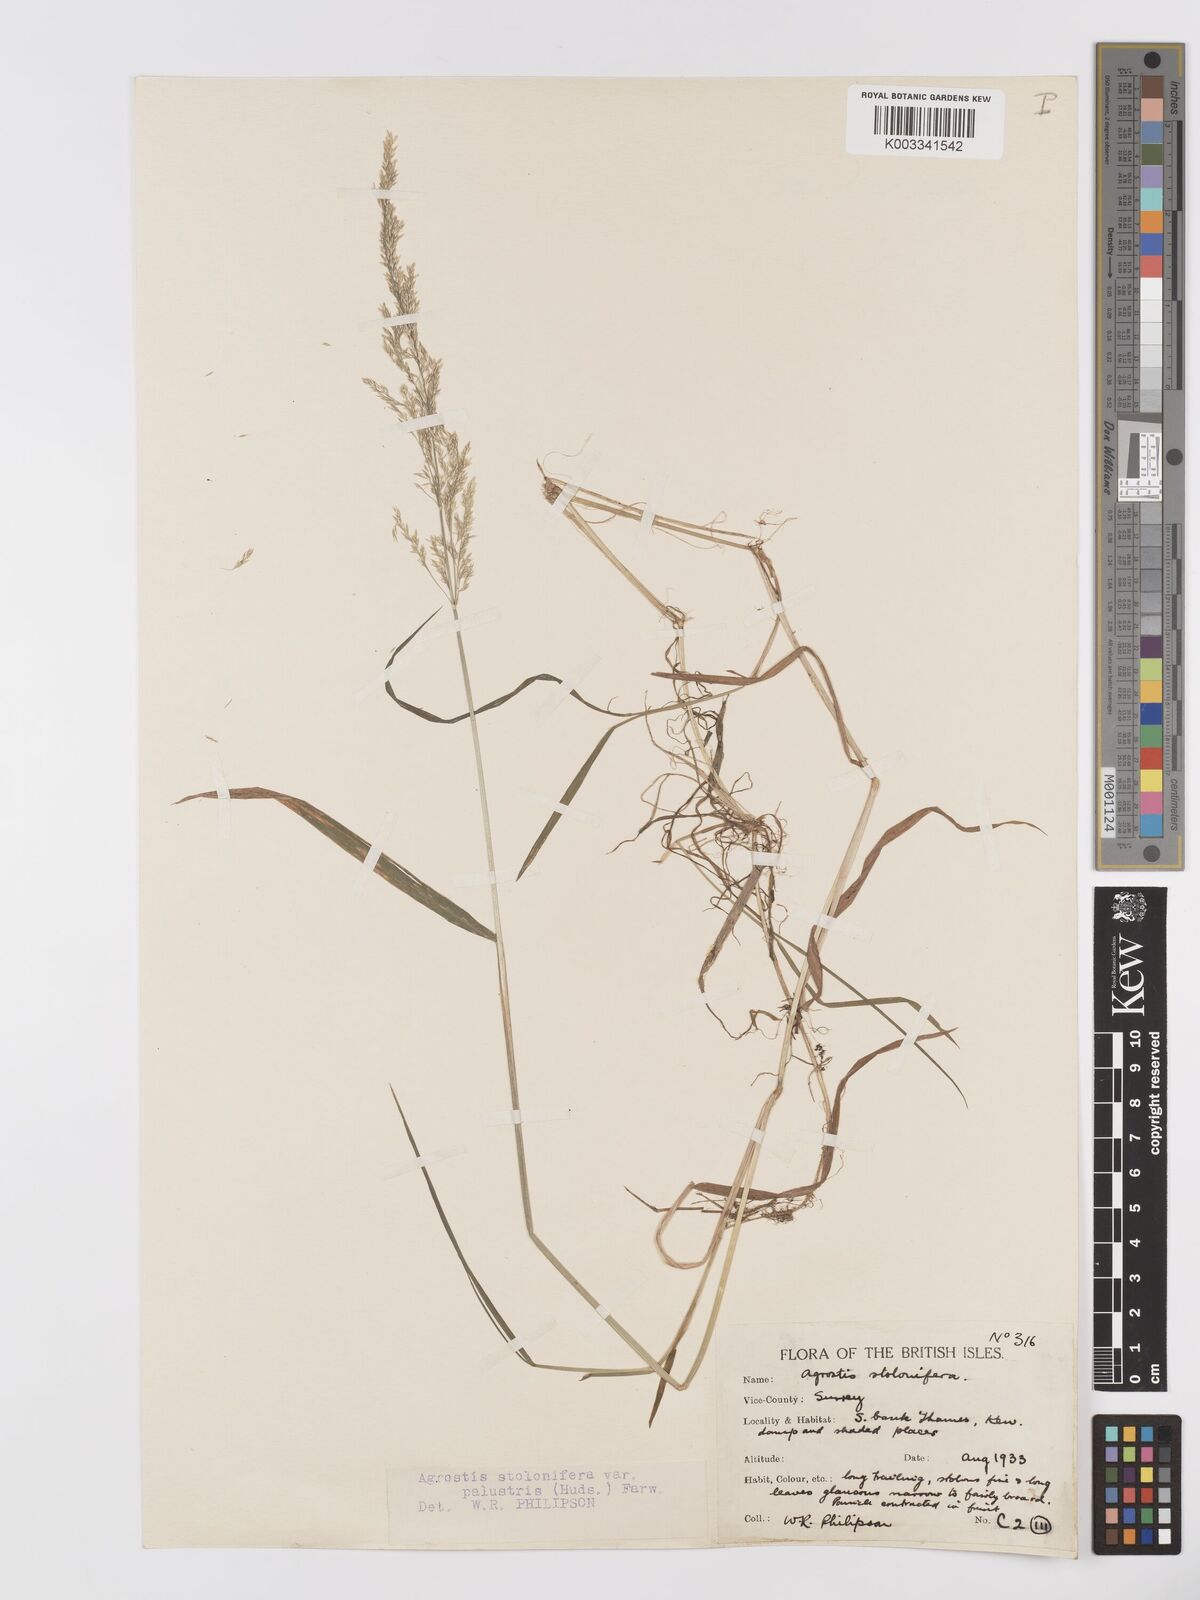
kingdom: Plantae
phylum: Tracheophyta
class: Liliopsida
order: Poales
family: Poaceae
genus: Agrostis
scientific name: Agrostis stolonifera
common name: Creeping bentgrass
